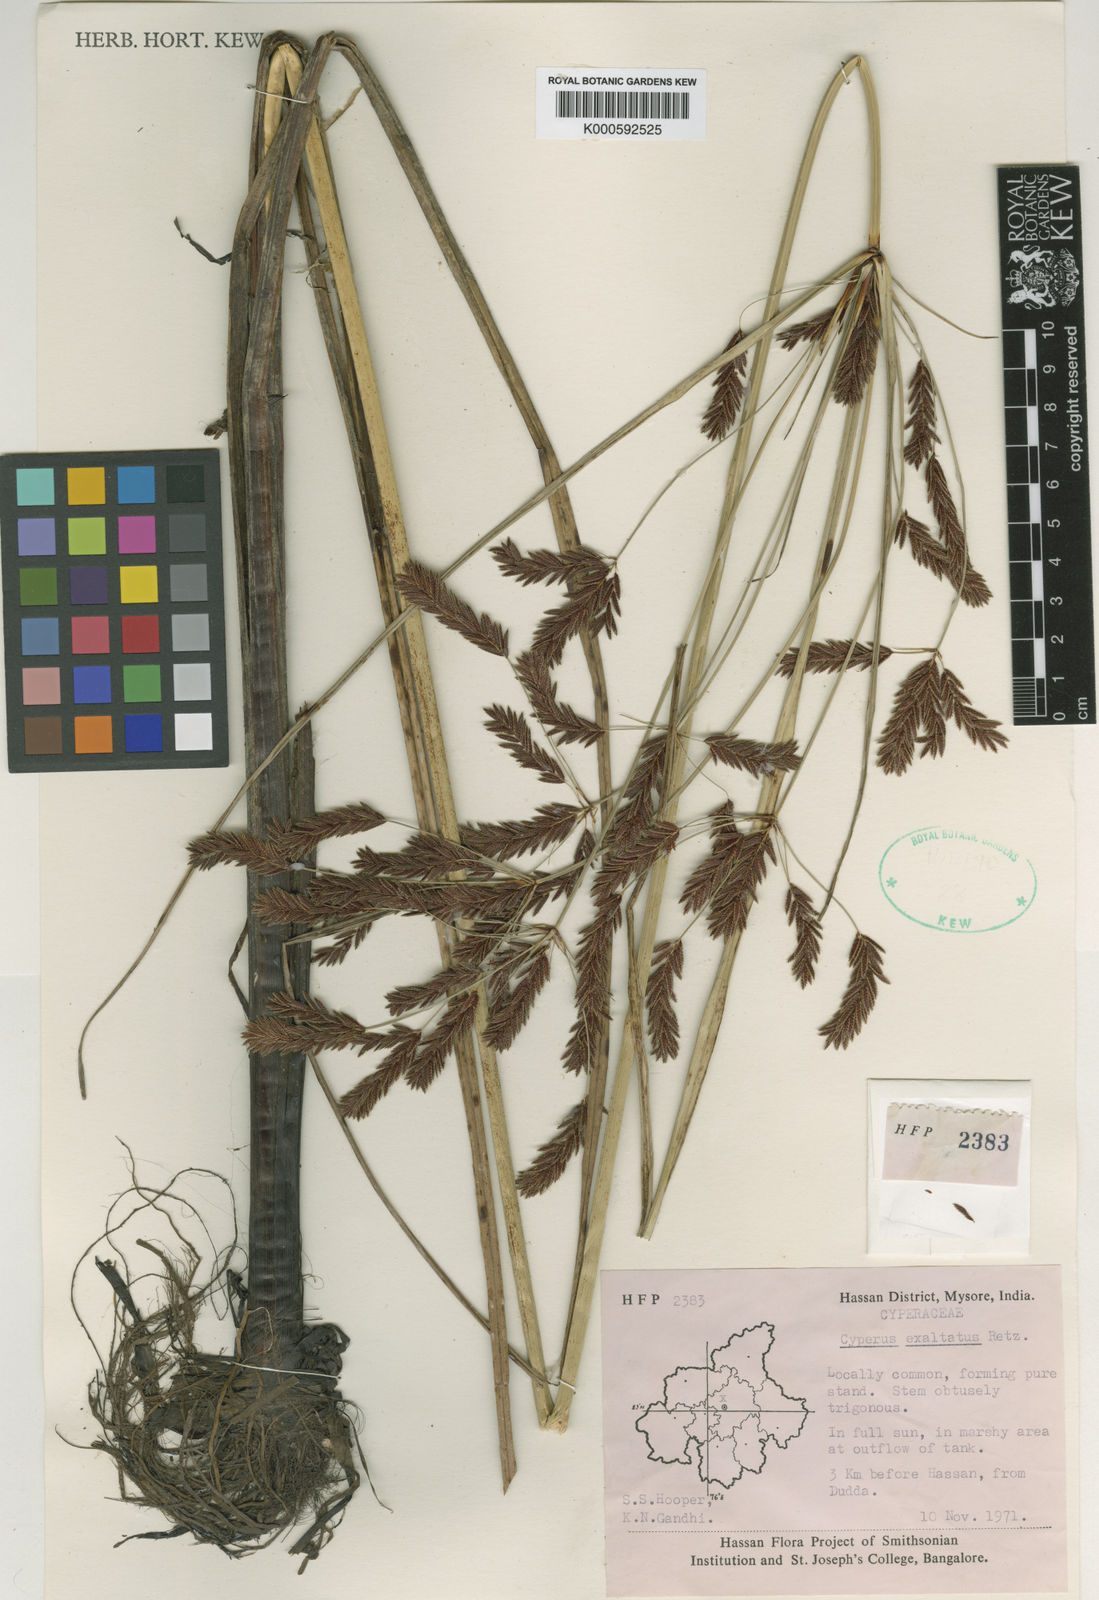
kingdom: Plantae
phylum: Tracheophyta
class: Liliopsida
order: Poales
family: Cyperaceae
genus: Cyperus
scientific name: Cyperus exaltatus
